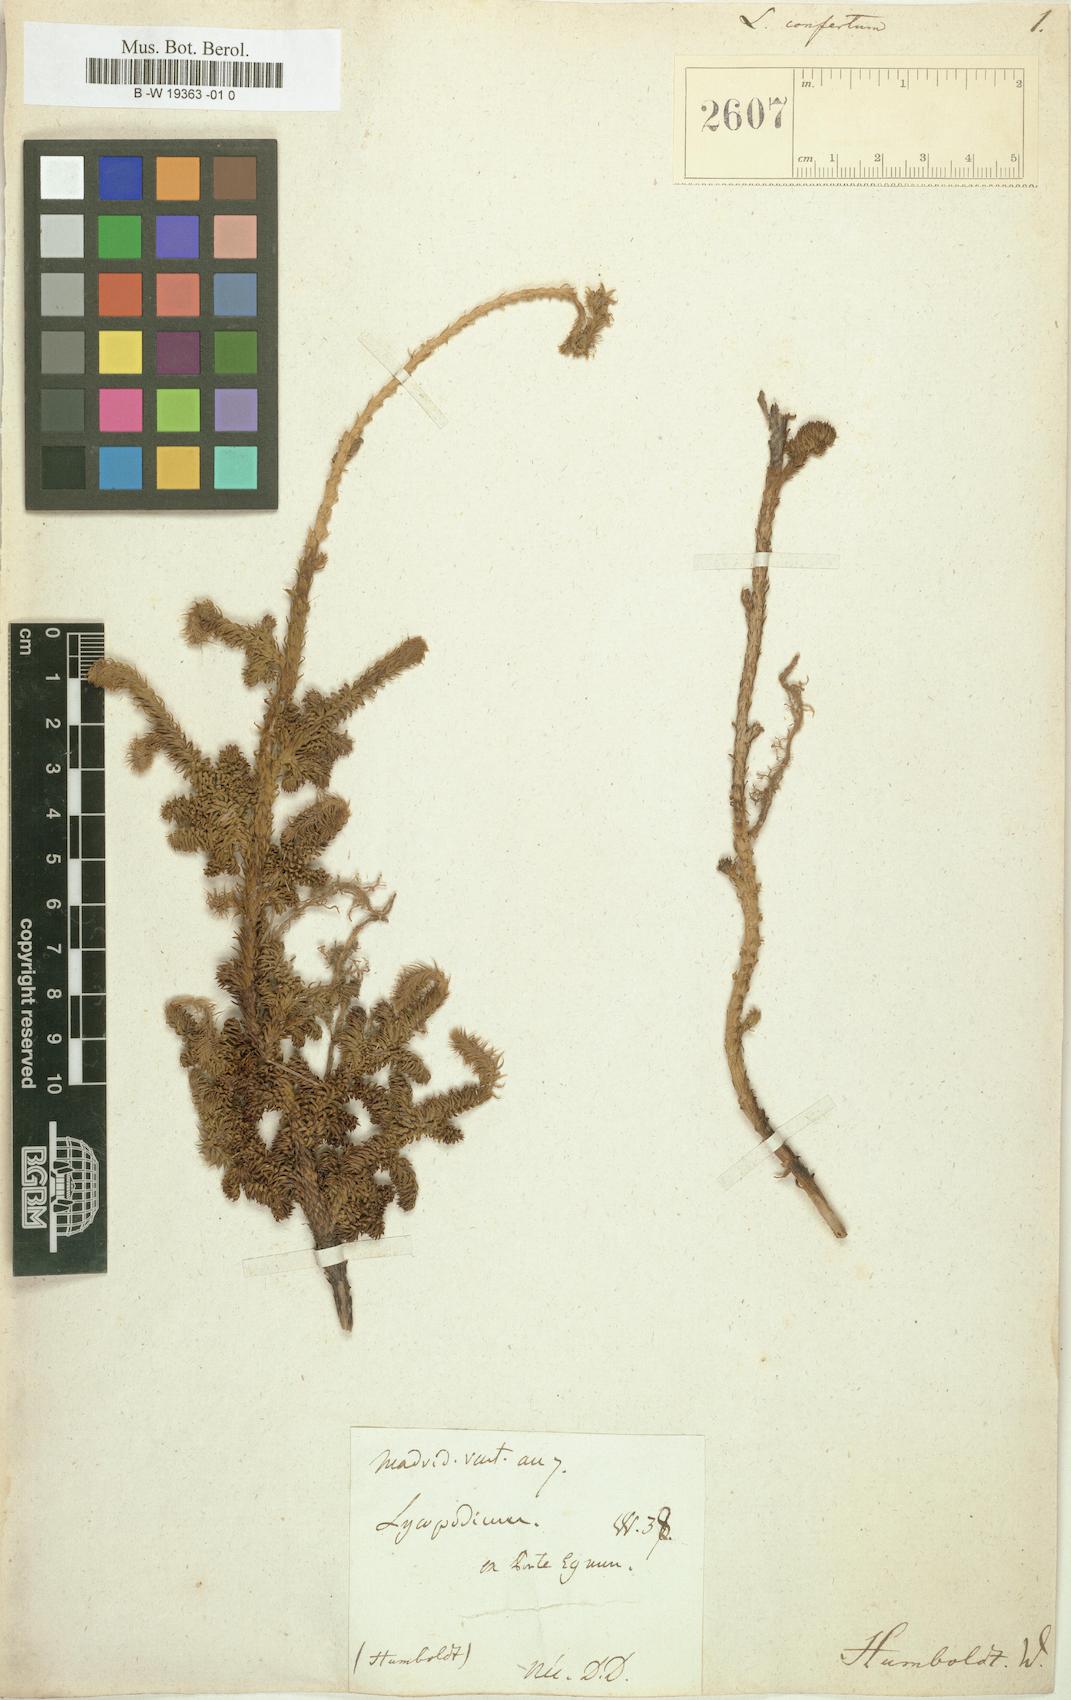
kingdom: Plantae
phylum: Tracheophyta
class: Lycopodiopsida
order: Lycopodiales
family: Lycopodiaceae
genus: Austrolycopodium
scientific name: Austrolycopodium confertum
